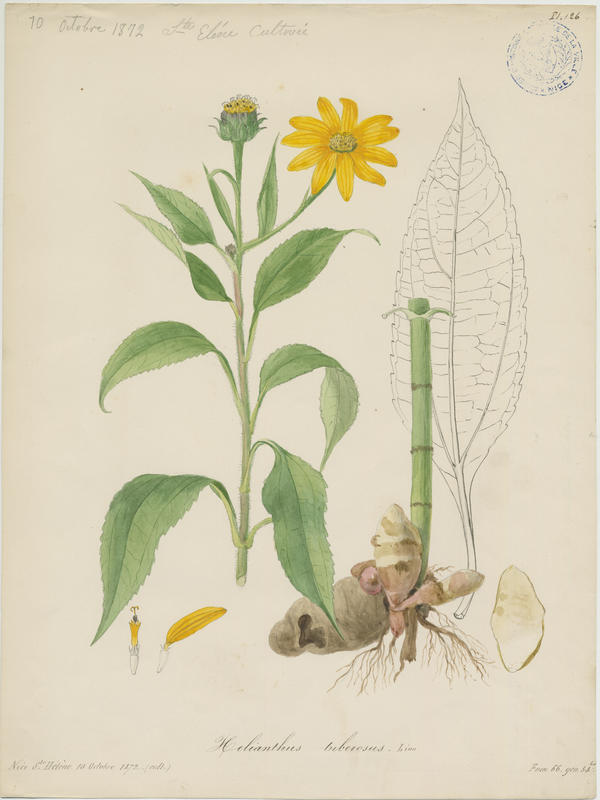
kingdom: Plantae
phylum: Tracheophyta
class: Magnoliopsida
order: Asterales
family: Asteraceae
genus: Helianthus
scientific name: Helianthus tuberosus
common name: Jerusalem artichoke
